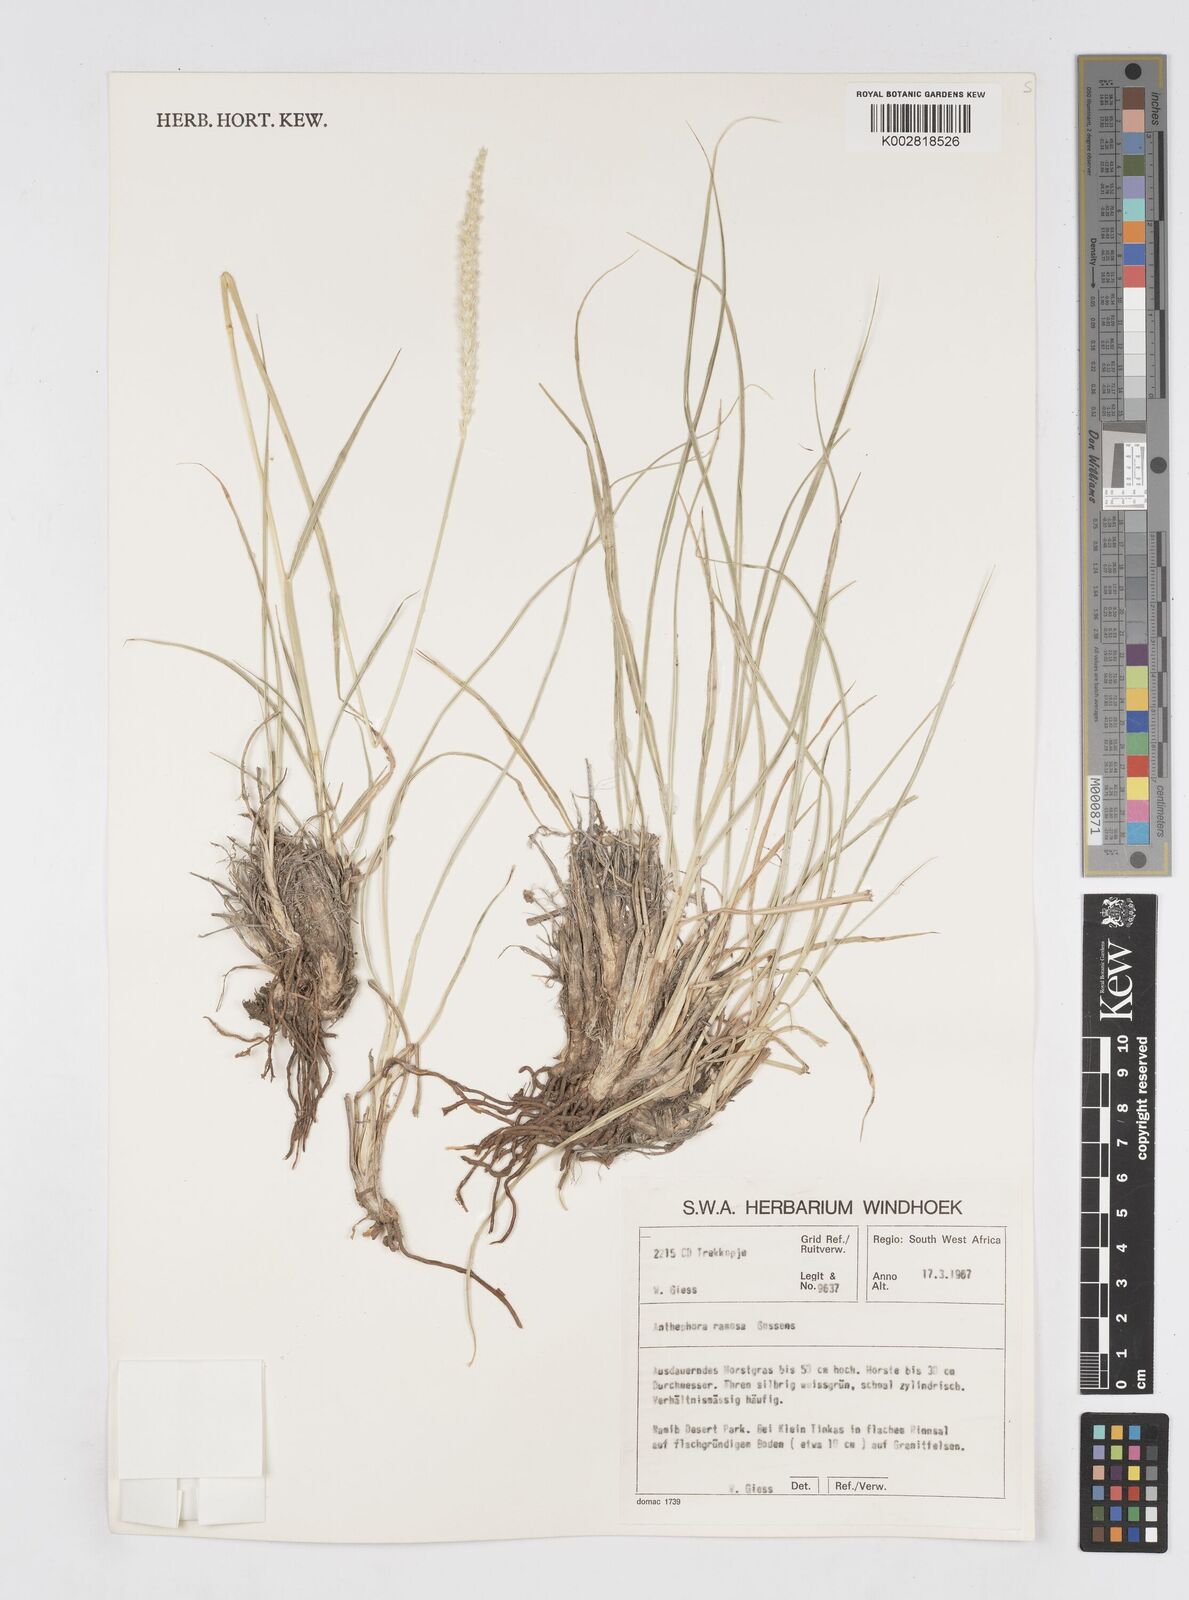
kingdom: Plantae
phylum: Tracheophyta
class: Liliopsida
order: Poales
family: Poaceae
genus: Anthephora
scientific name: Anthephora pubescens
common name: Wool grass
